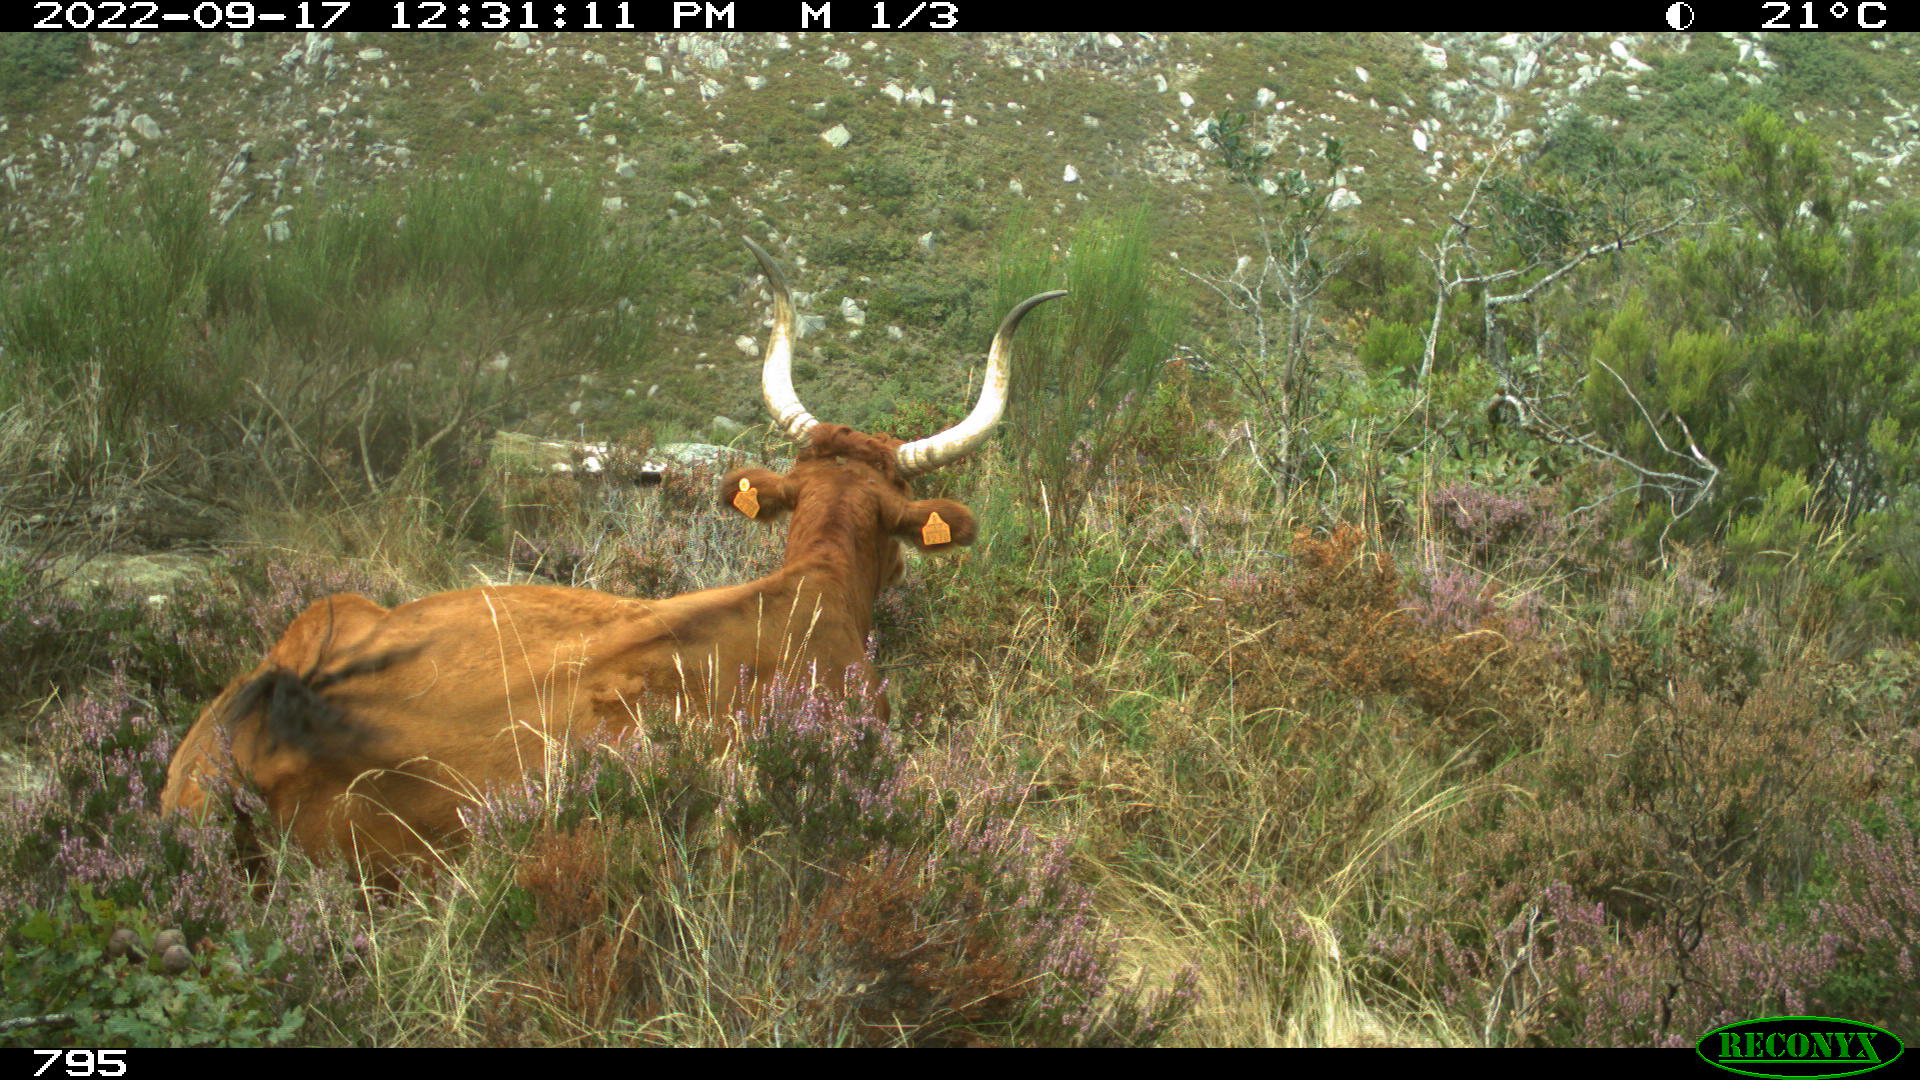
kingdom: Animalia
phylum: Chordata
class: Mammalia
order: Artiodactyla
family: Bovidae
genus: Bos
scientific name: Bos taurus
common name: Domesticated cattle
